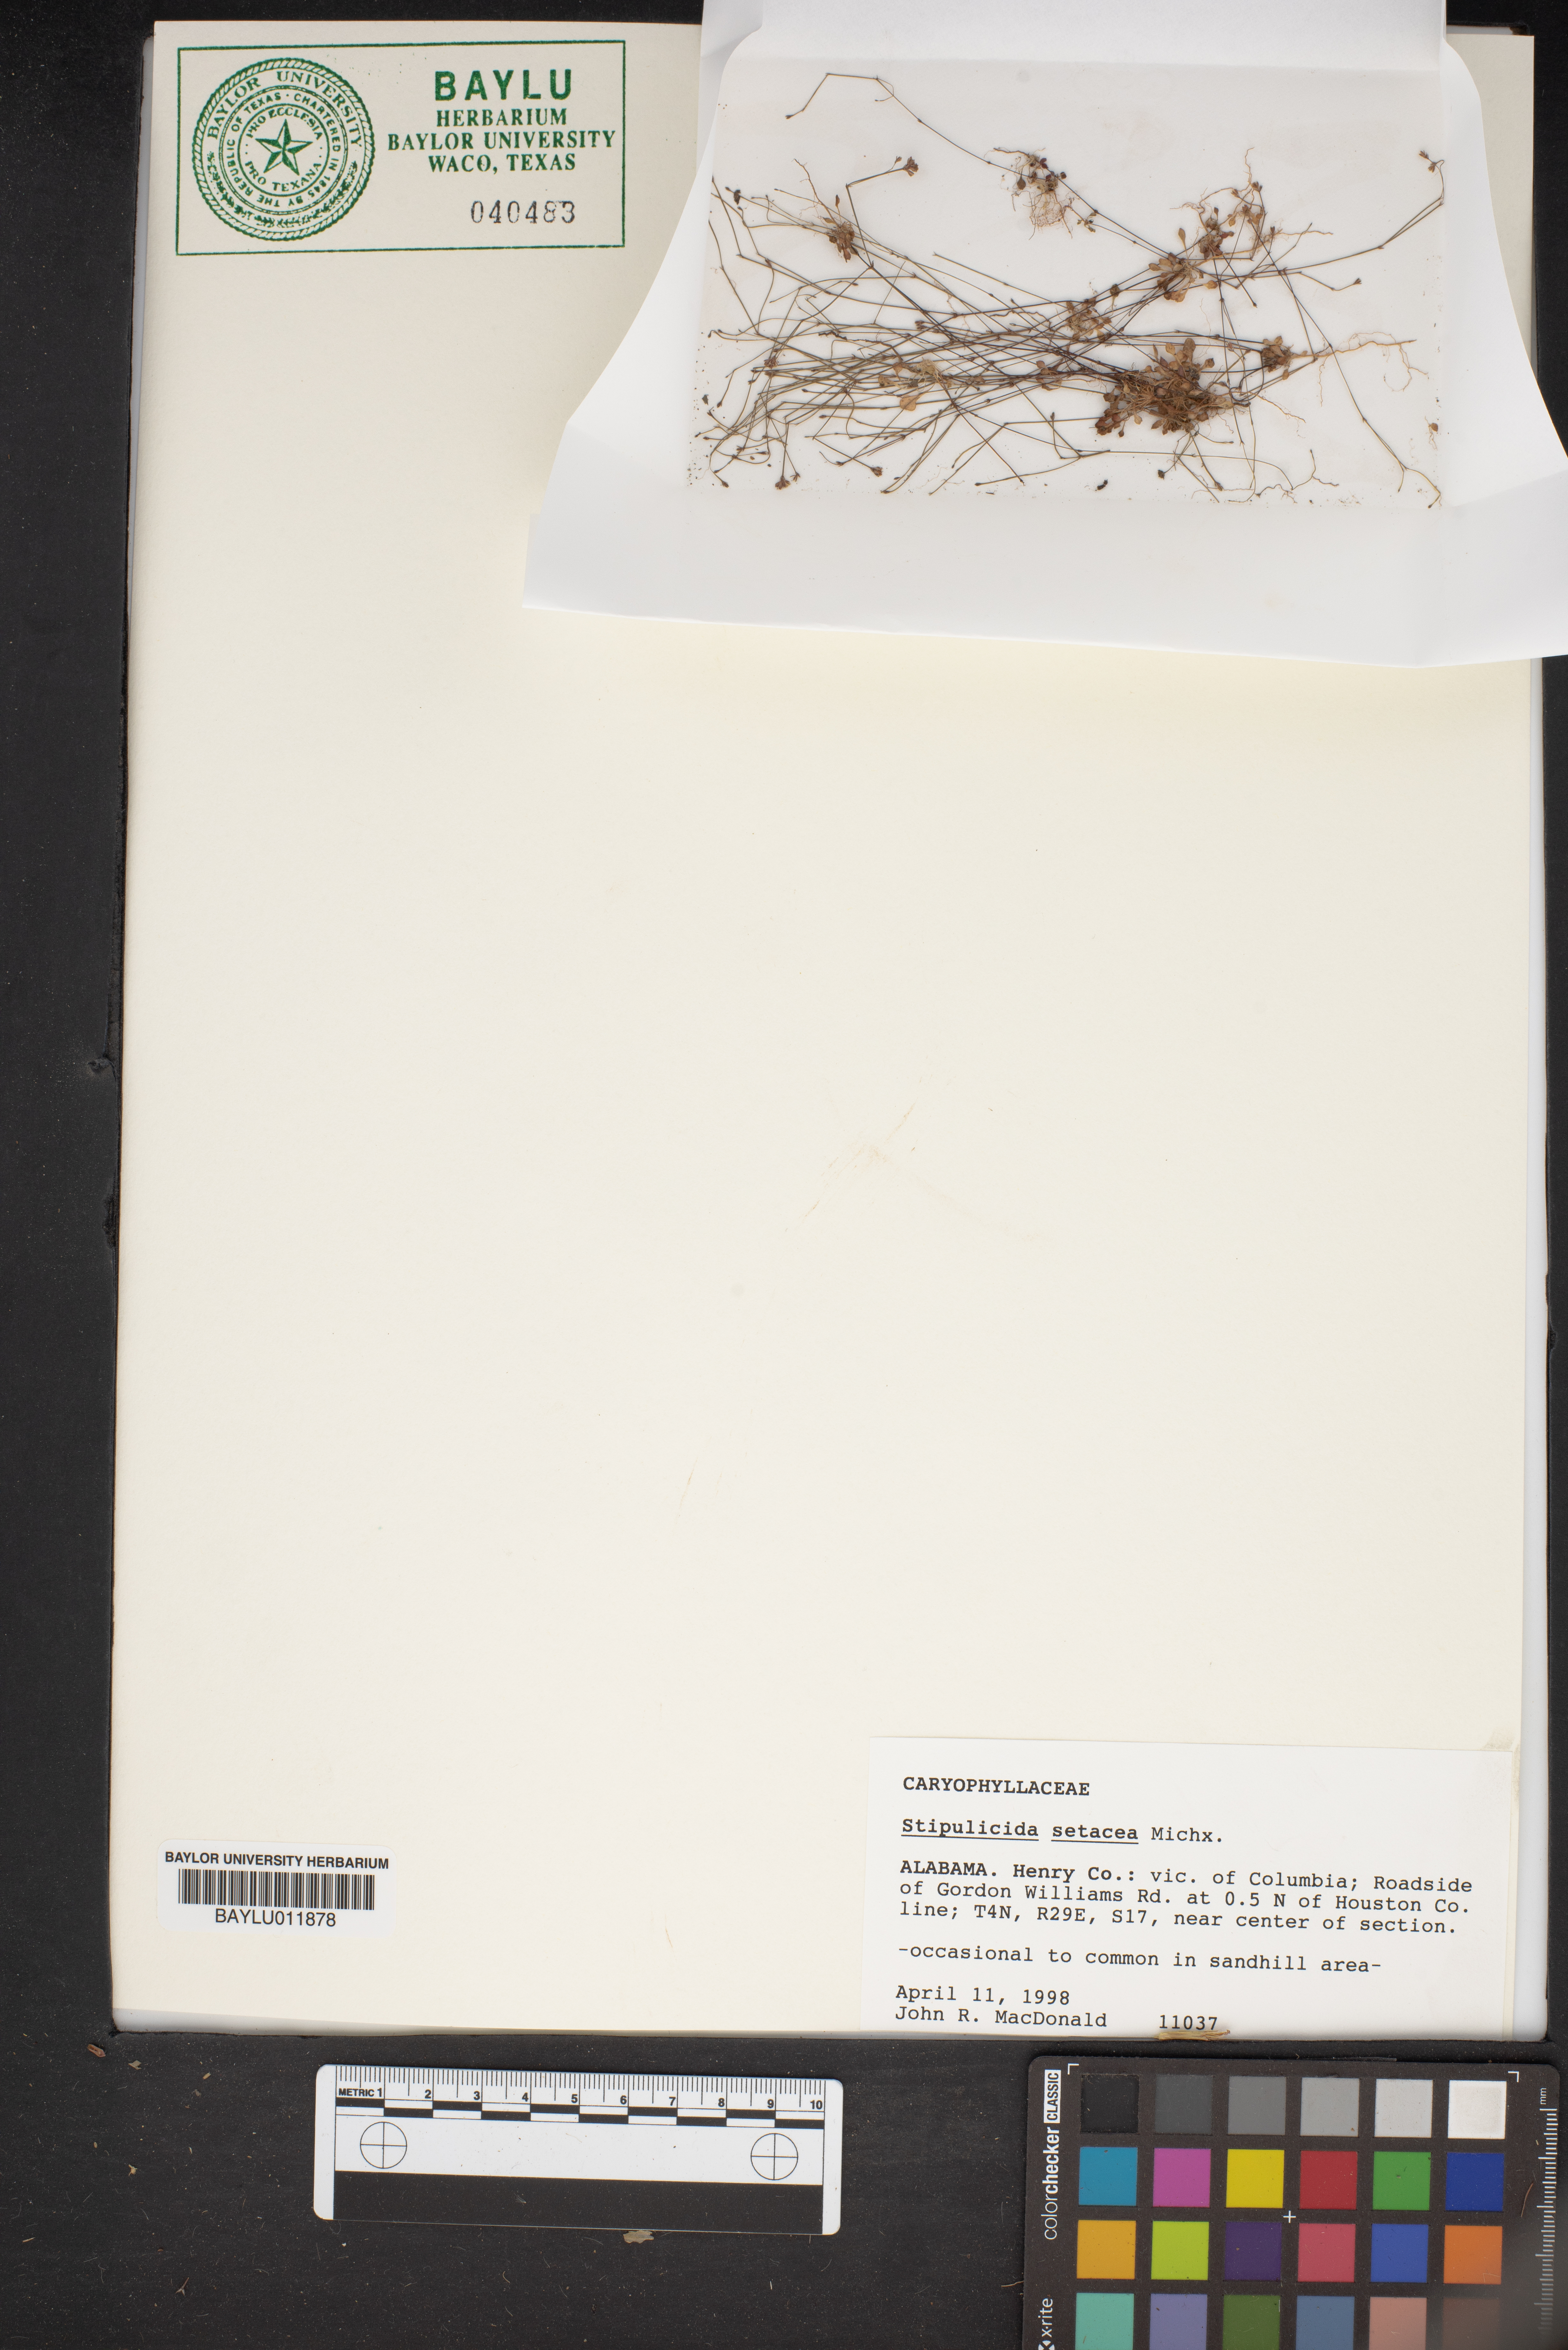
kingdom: Plantae
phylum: Tracheophyta
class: Magnoliopsida
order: Caryophyllales
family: Caryophyllaceae
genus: Stipulicida
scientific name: Stipulicida setacea
